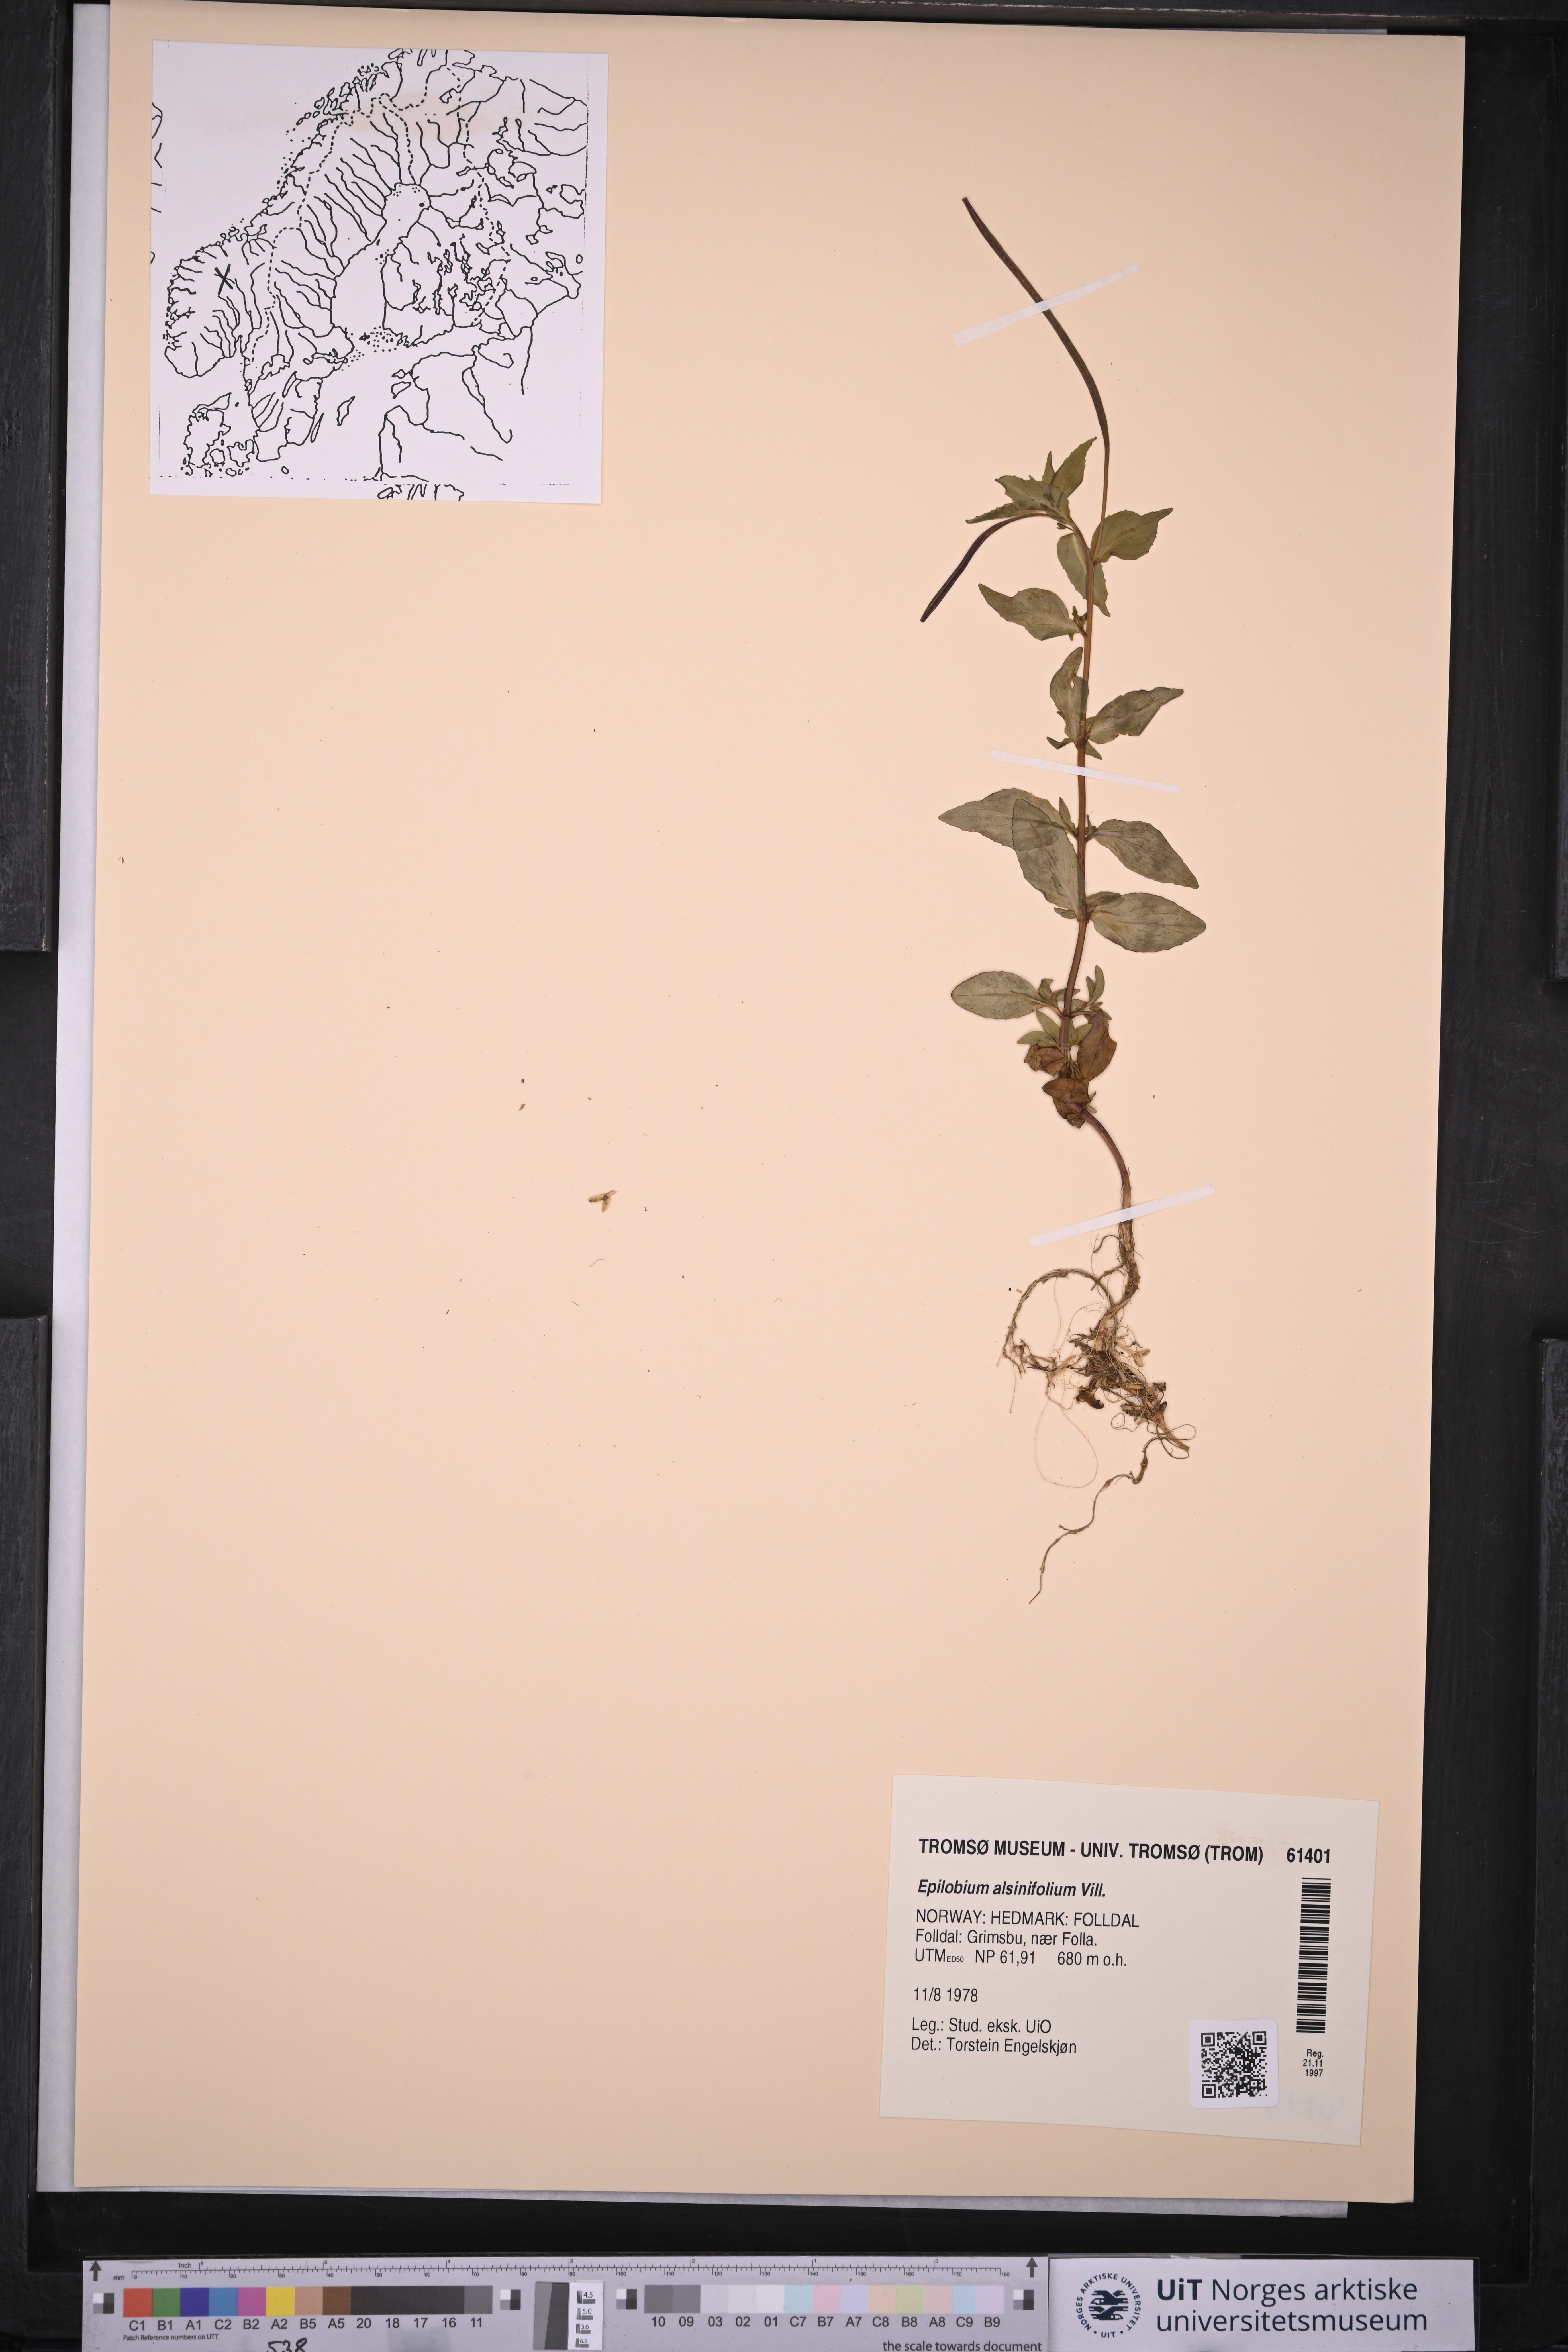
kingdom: Plantae
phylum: Tracheophyta
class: Magnoliopsida
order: Myrtales
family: Onagraceae
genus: Epilobium
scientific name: Epilobium alsinifolium
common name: Chickweed willowherb
